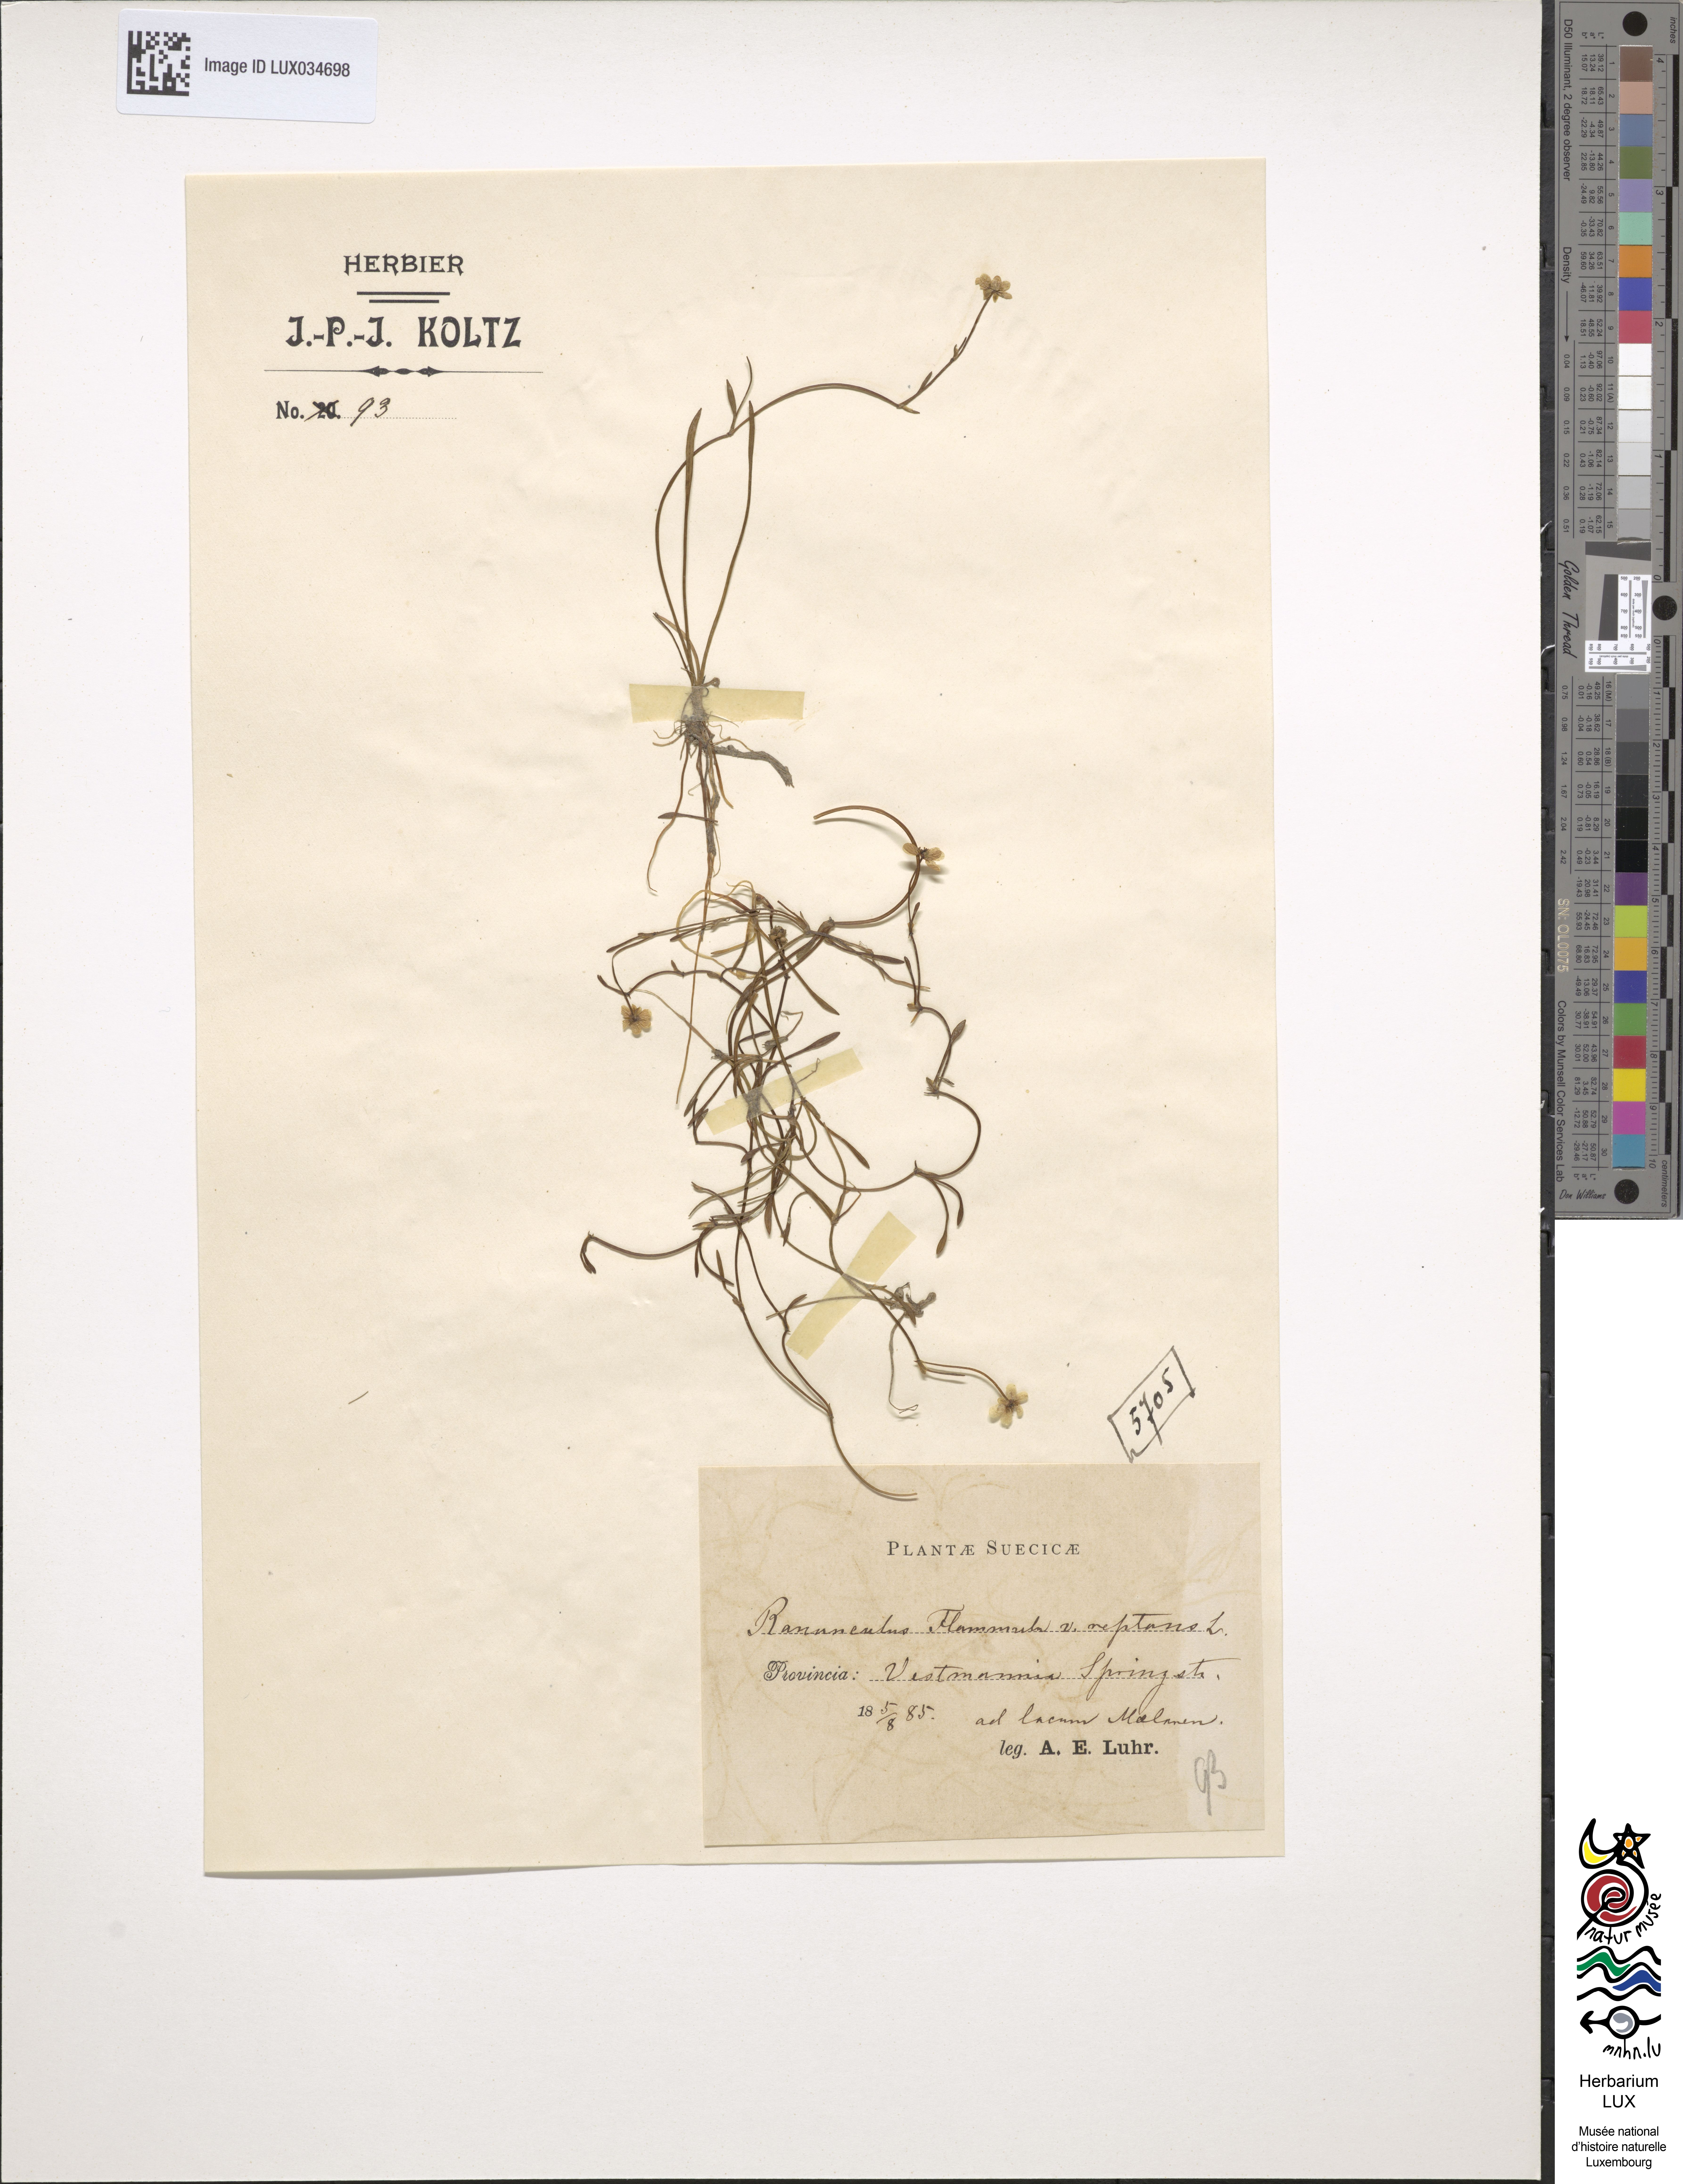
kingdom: Plantae
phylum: Tracheophyta
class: Magnoliopsida
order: Ranunculales
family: Ranunculaceae
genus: Ranunculus
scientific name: Ranunculus reptans
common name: Creeping spearwort
